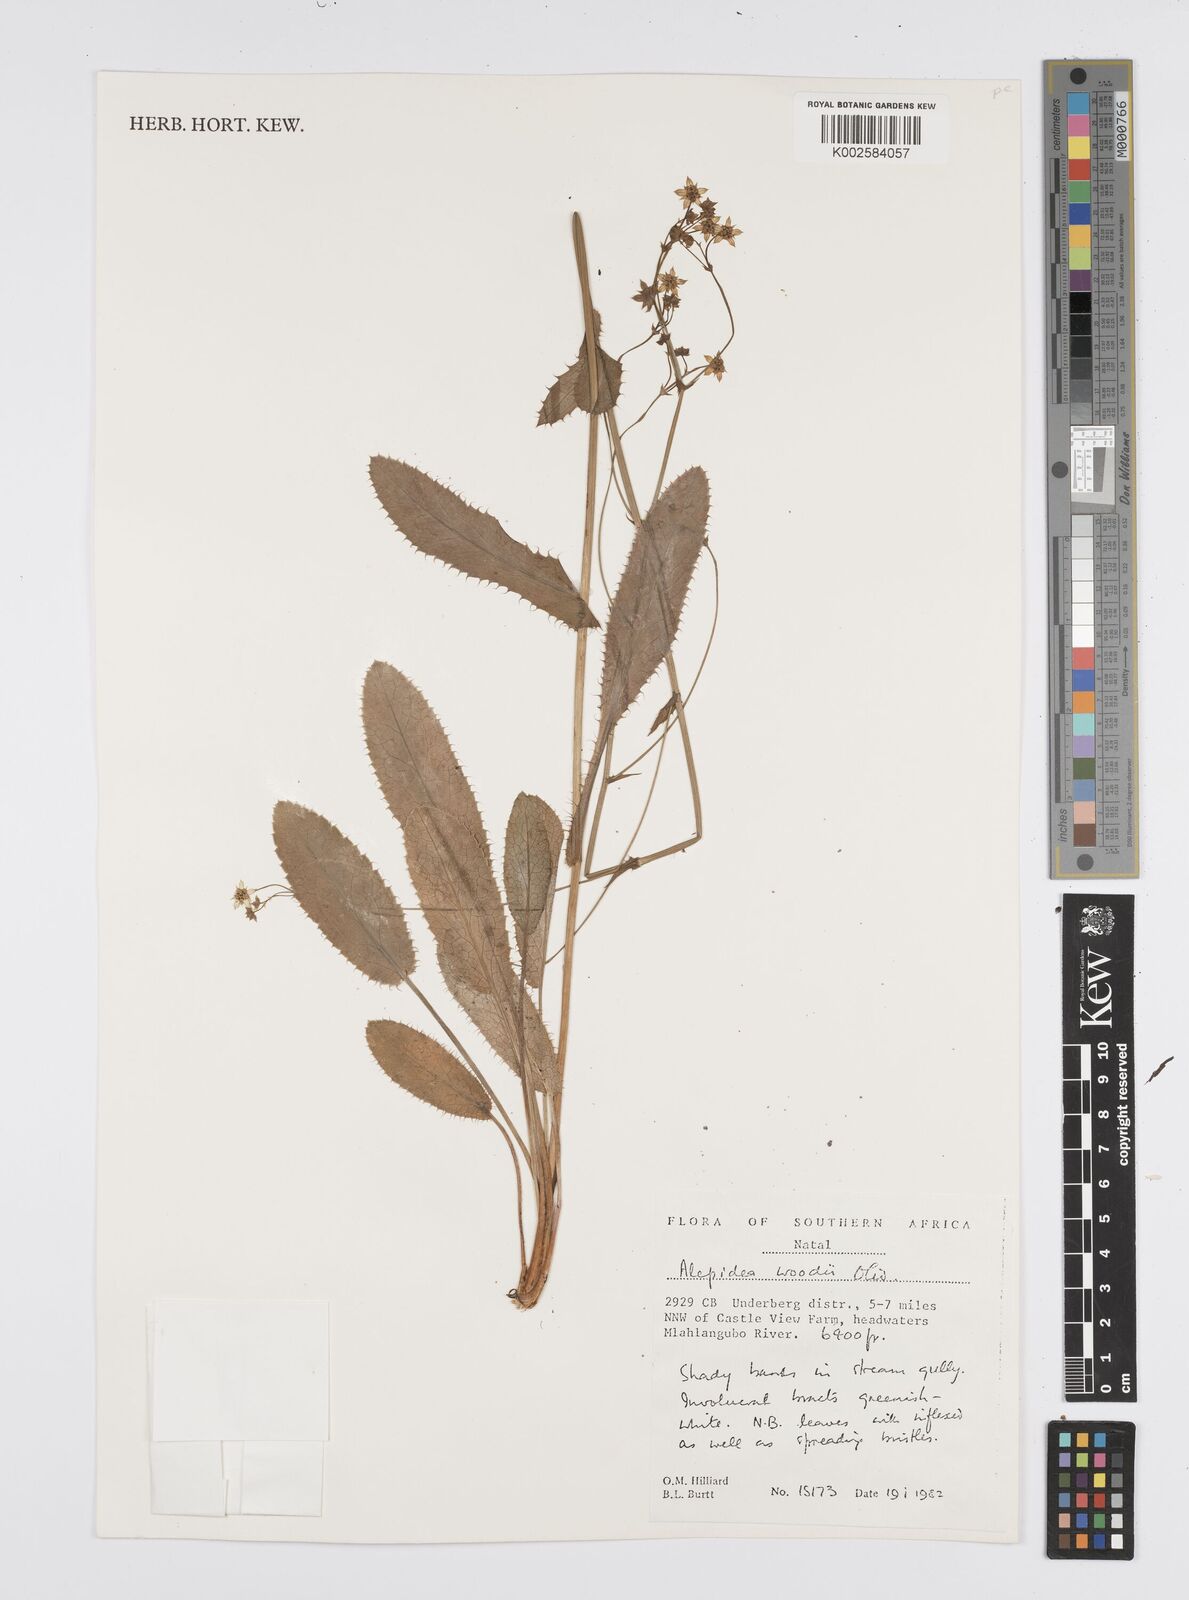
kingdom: Plantae
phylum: Tracheophyta
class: Magnoliopsida
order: Apiales
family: Apiaceae
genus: Alepidea
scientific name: Alepidea woodii
